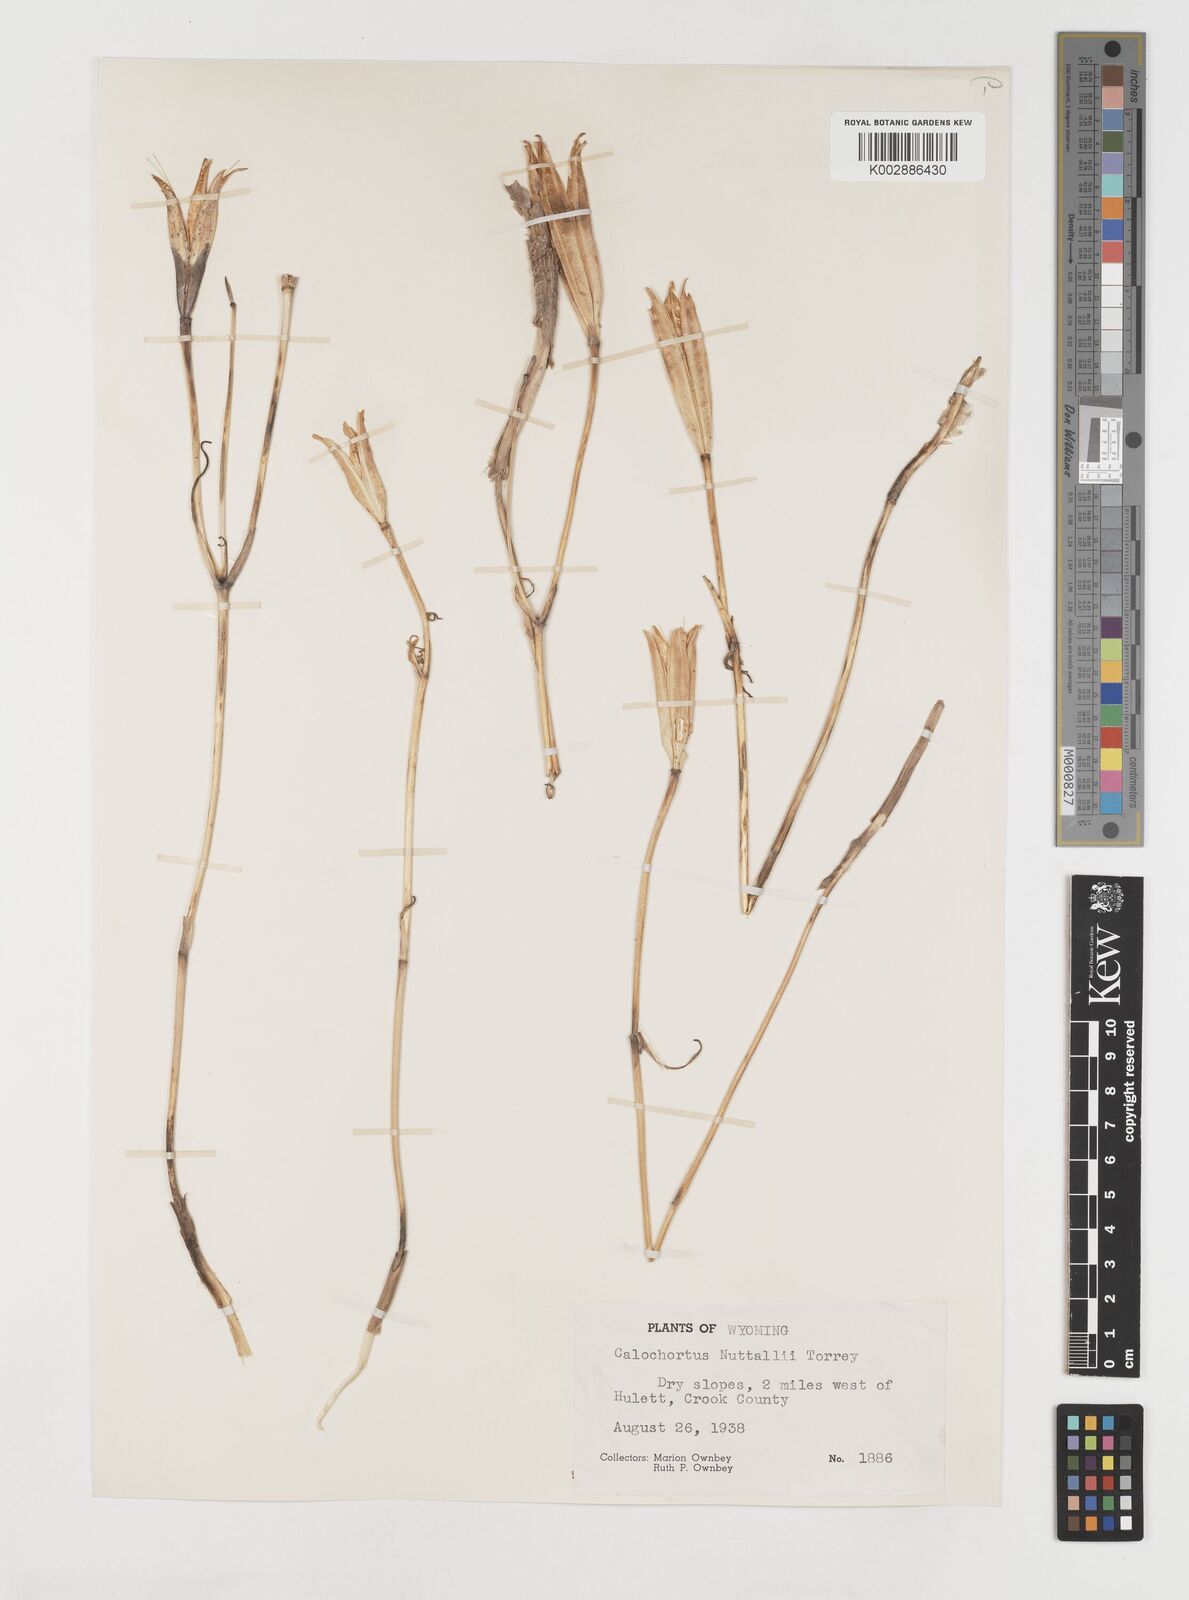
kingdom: Plantae
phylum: Tracheophyta
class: Liliopsida
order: Liliales
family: Liliaceae
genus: Calochortus
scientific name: Calochortus nuttallii
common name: Sego-lily
